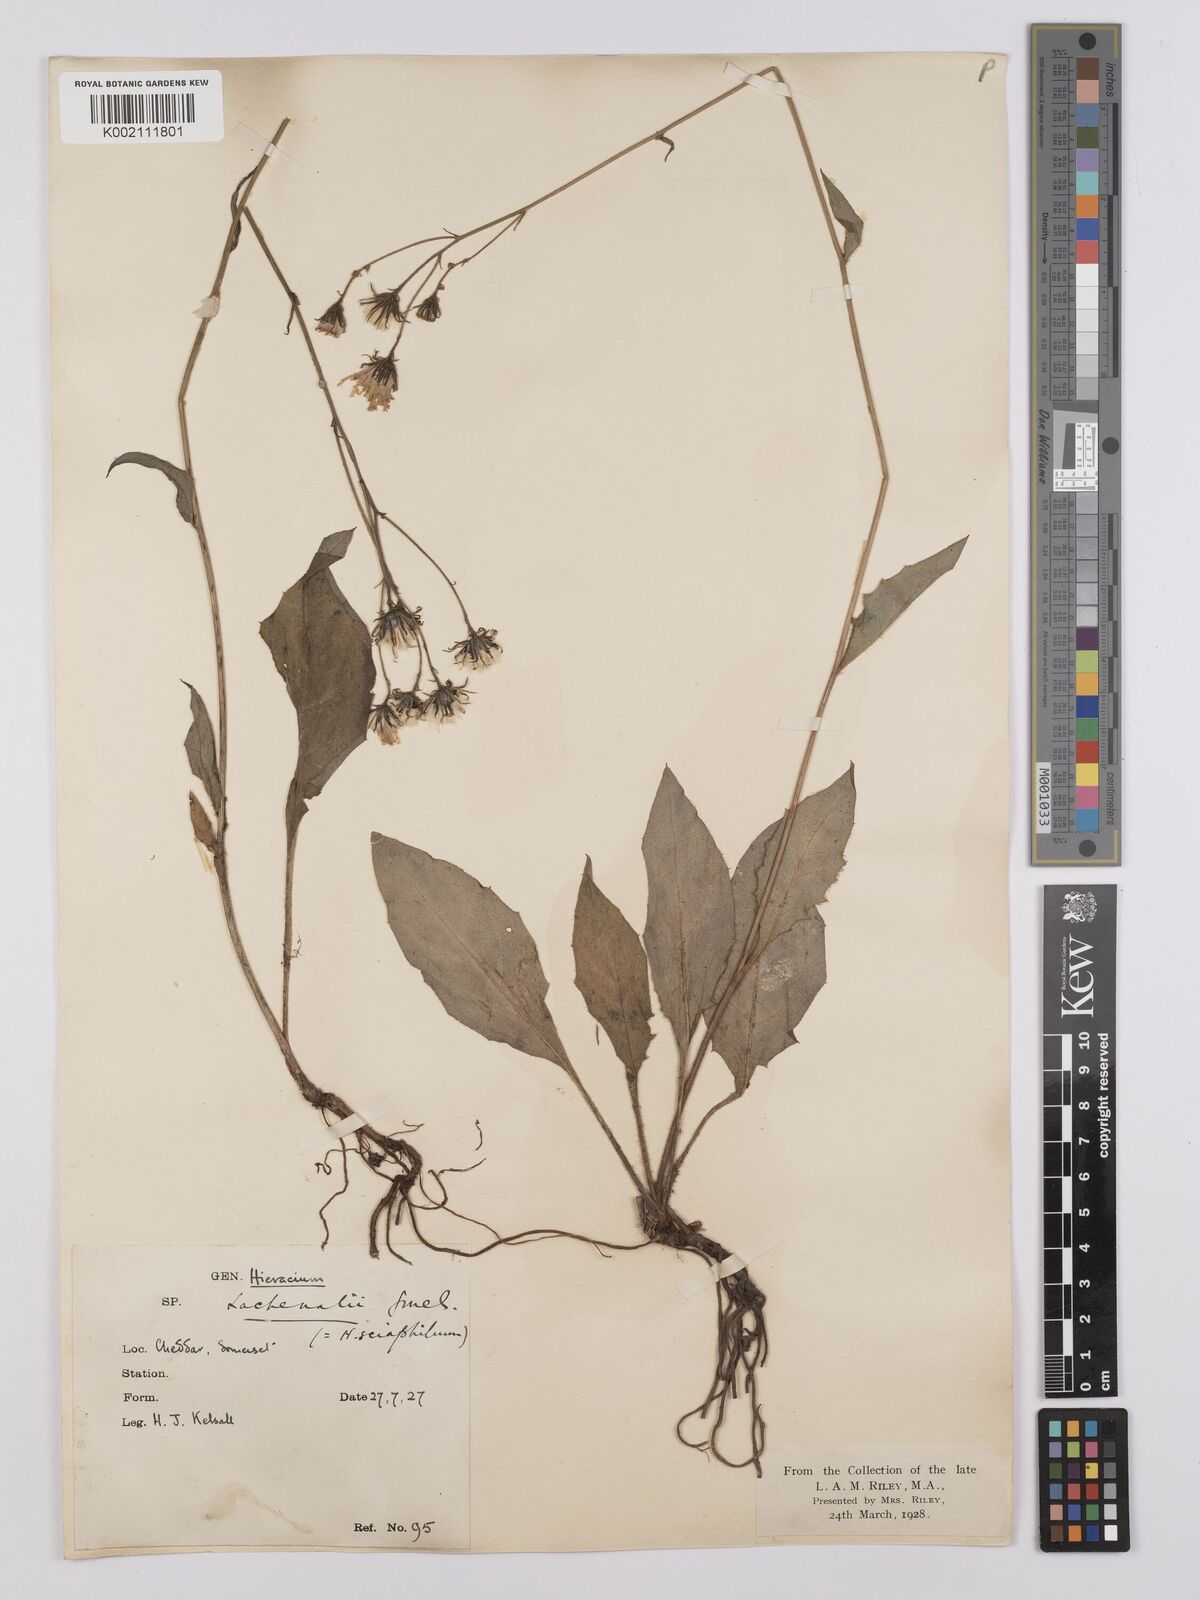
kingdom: Plantae
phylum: Tracheophyta
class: Magnoliopsida
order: Asterales
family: Asteraceae
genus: Hieracium
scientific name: Hieracium lachenalii
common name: Common hawkweed
